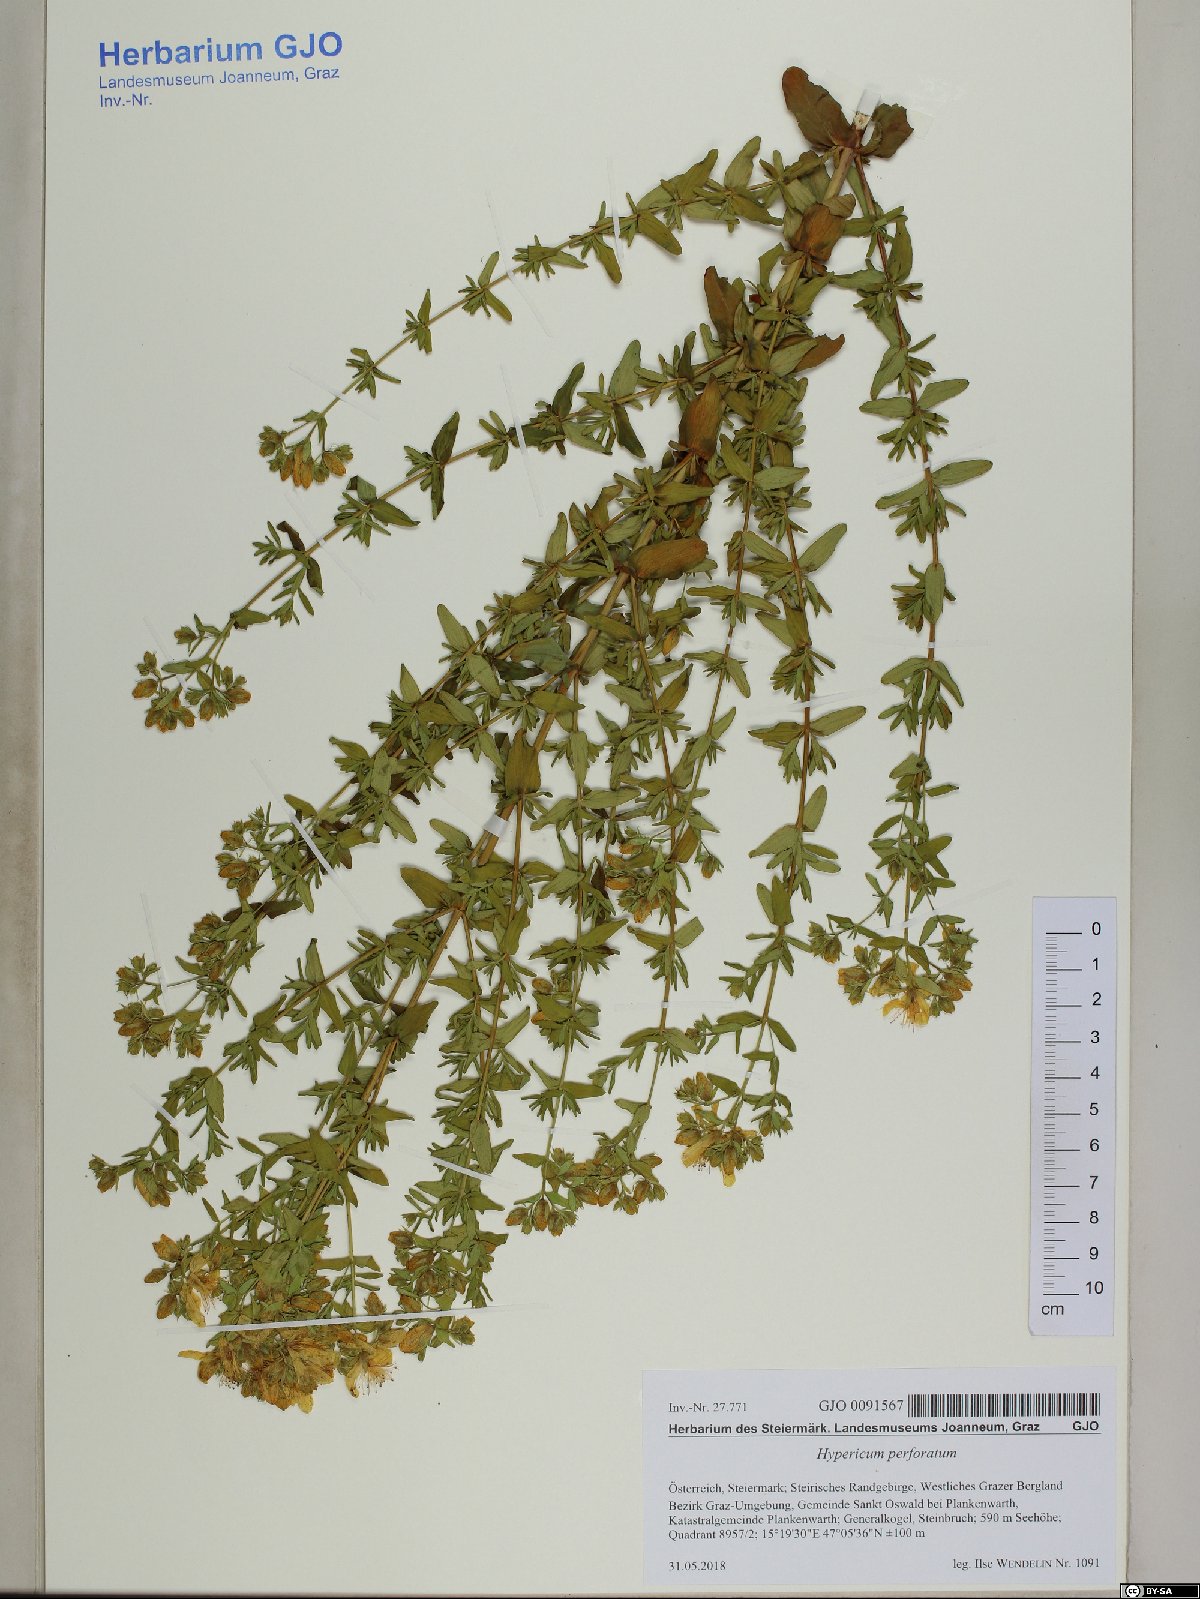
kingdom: Plantae
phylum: Tracheophyta
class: Magnoliopsida
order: Malpighiales
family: Hypericaceae
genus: Hypericum
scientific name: Hypericum perforatum
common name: Common st. johnswort
